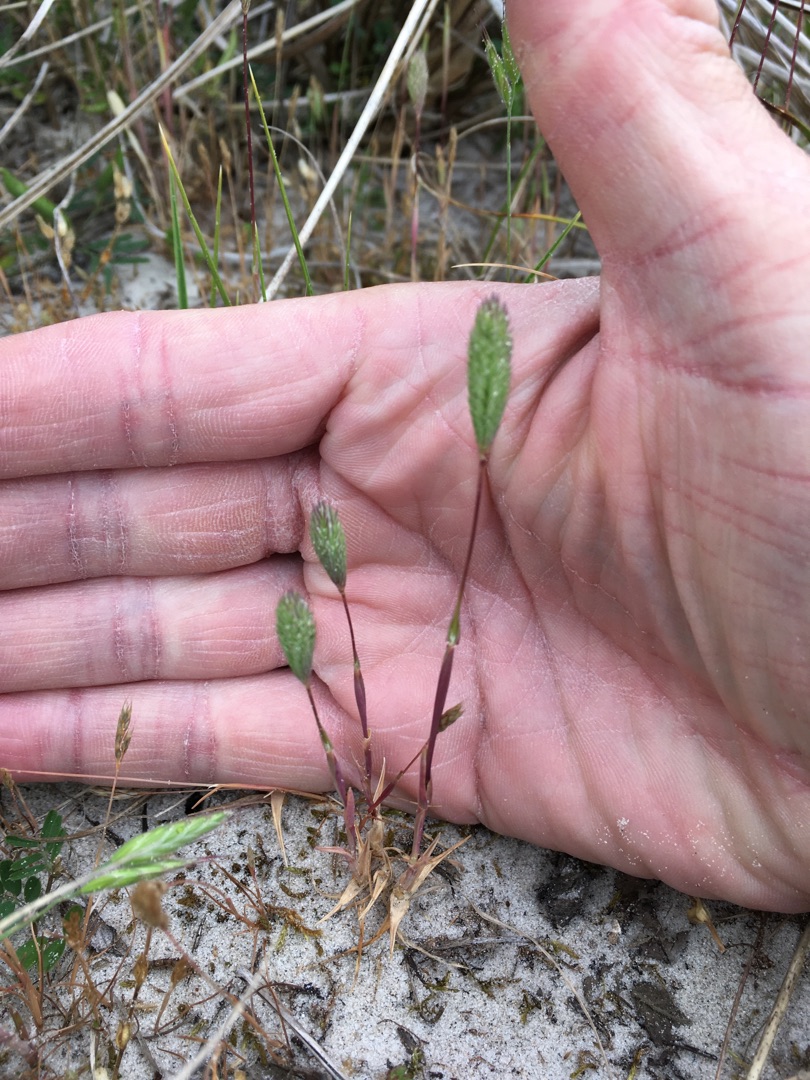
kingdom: Plantae
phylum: Tracheophyta
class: Liliopsida
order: Poales
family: Poaceae
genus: Phleum
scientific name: Phleum arenarium
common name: Sand-rottehale
